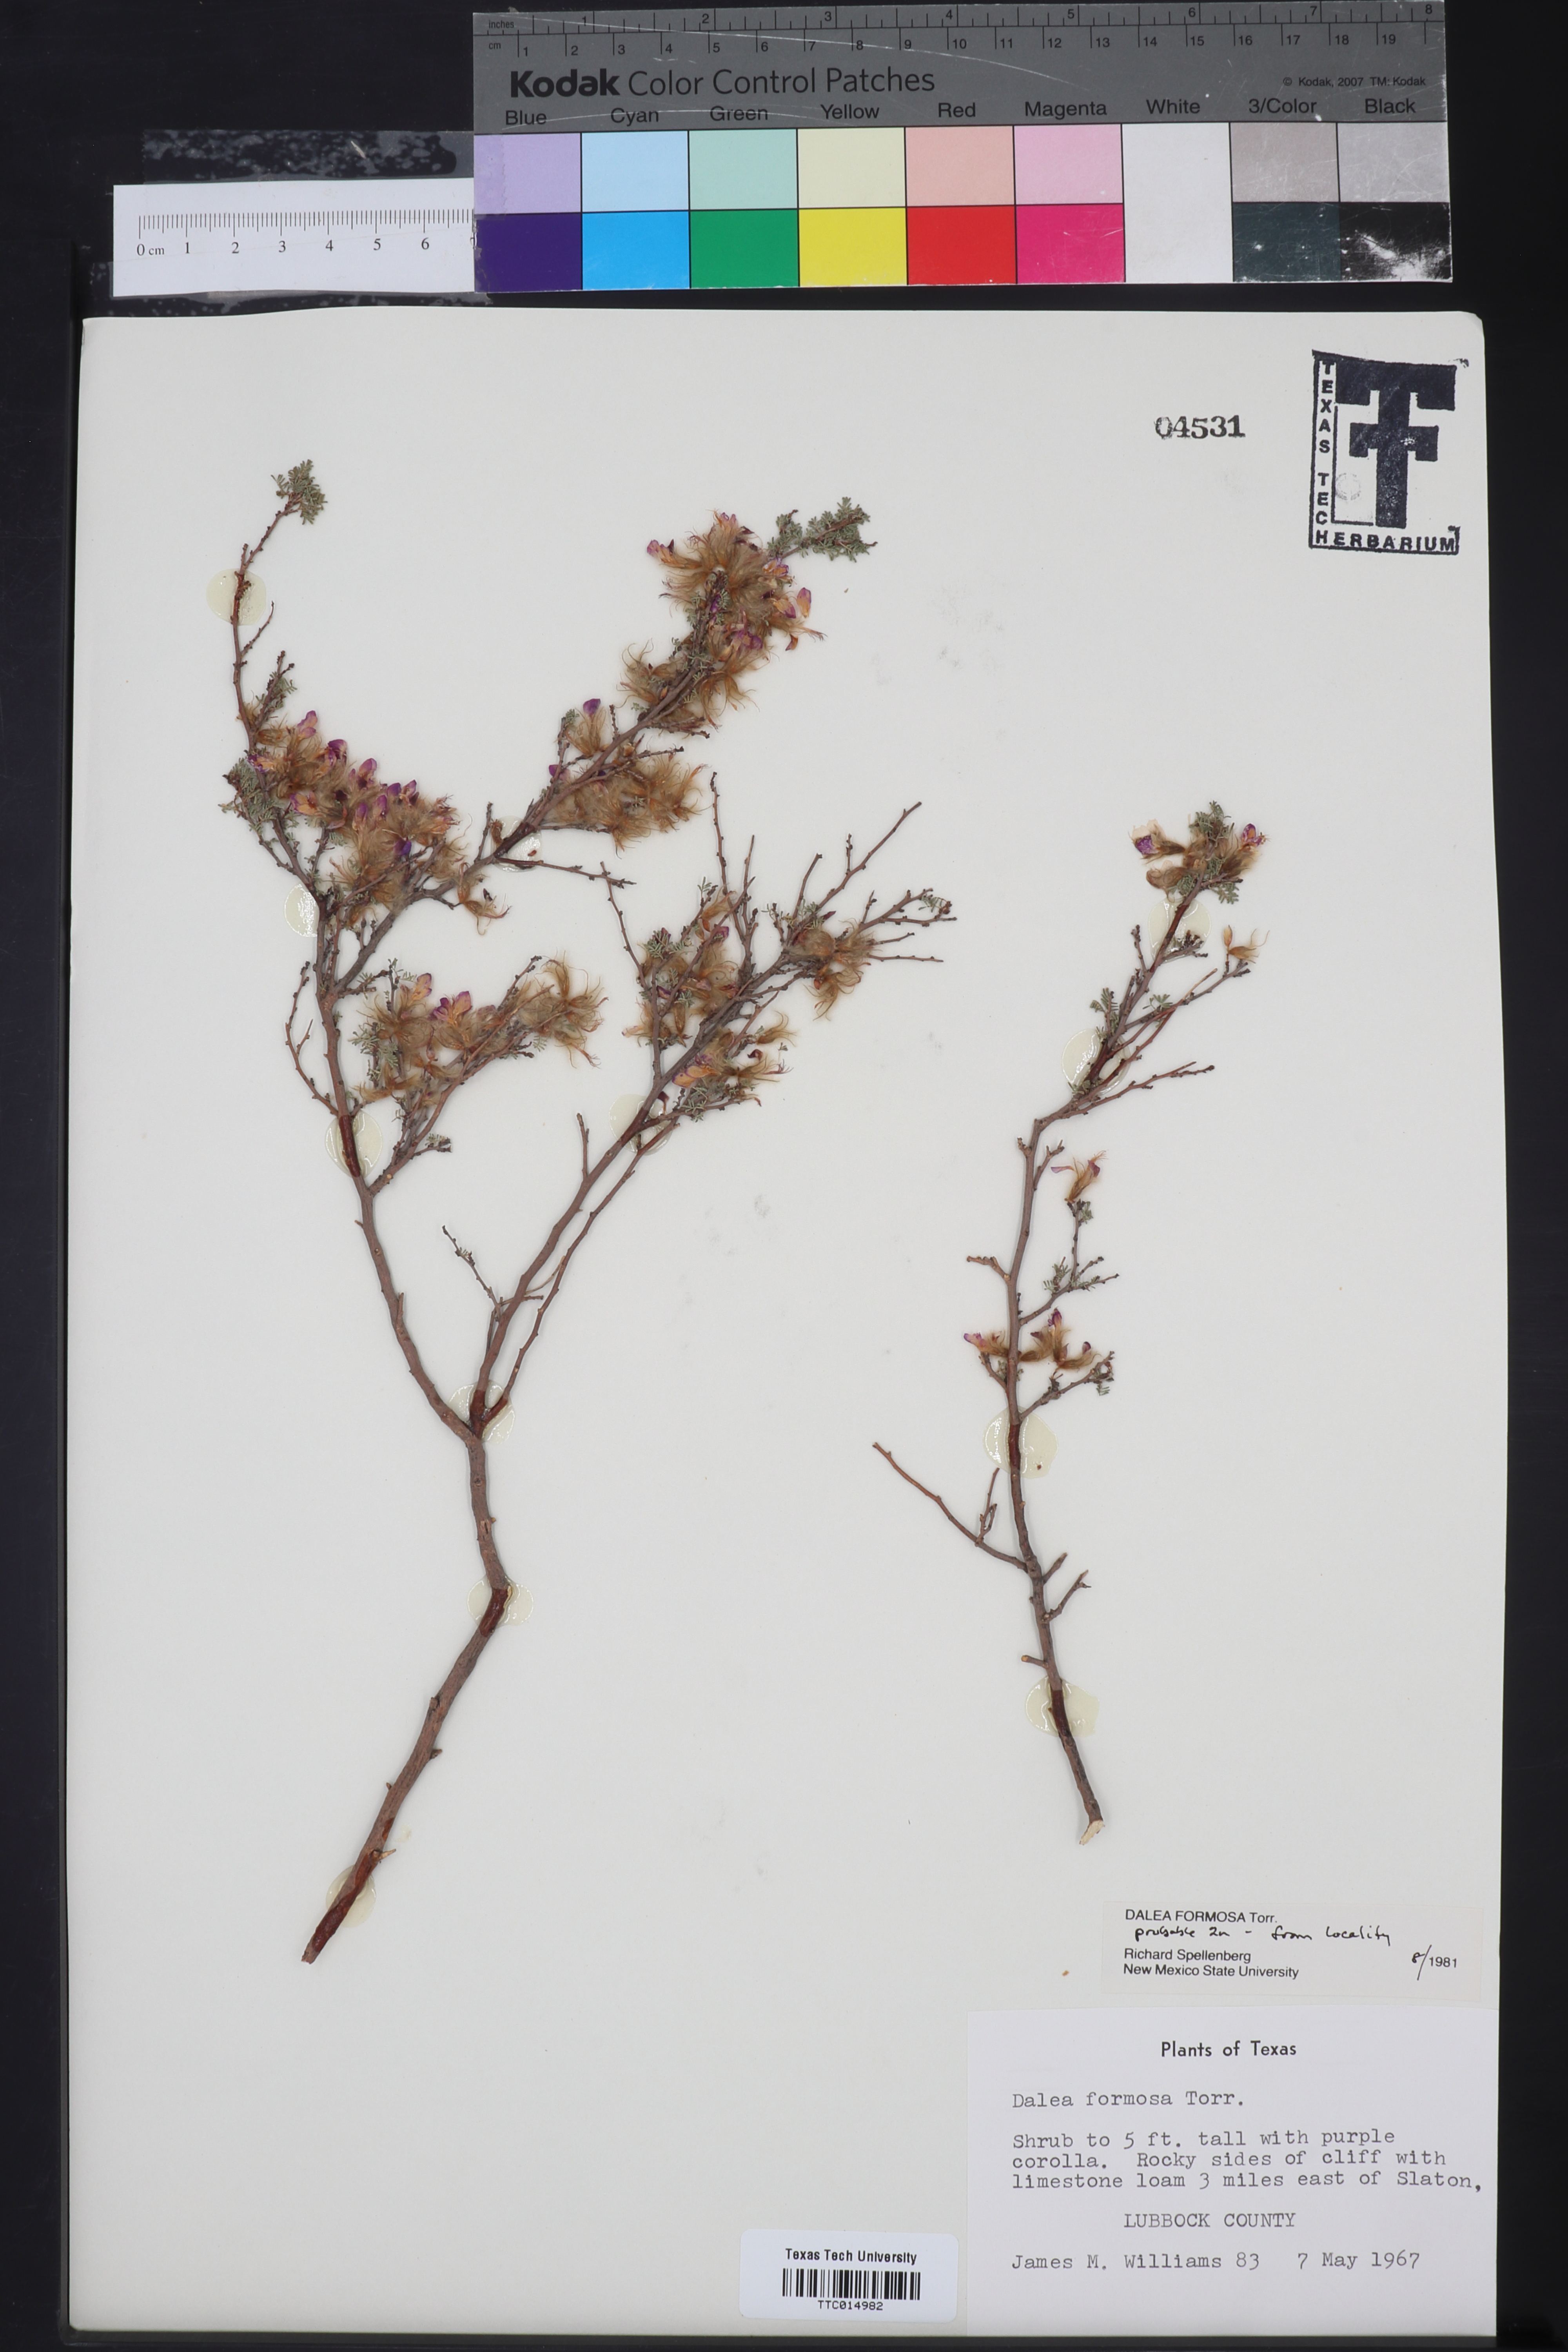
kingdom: Plantae
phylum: Tracheophyta
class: Magnoliopsida
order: Fabales
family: Fabaceae
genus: Dalea
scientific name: Dalea formosa
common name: Feather-plume dalea
